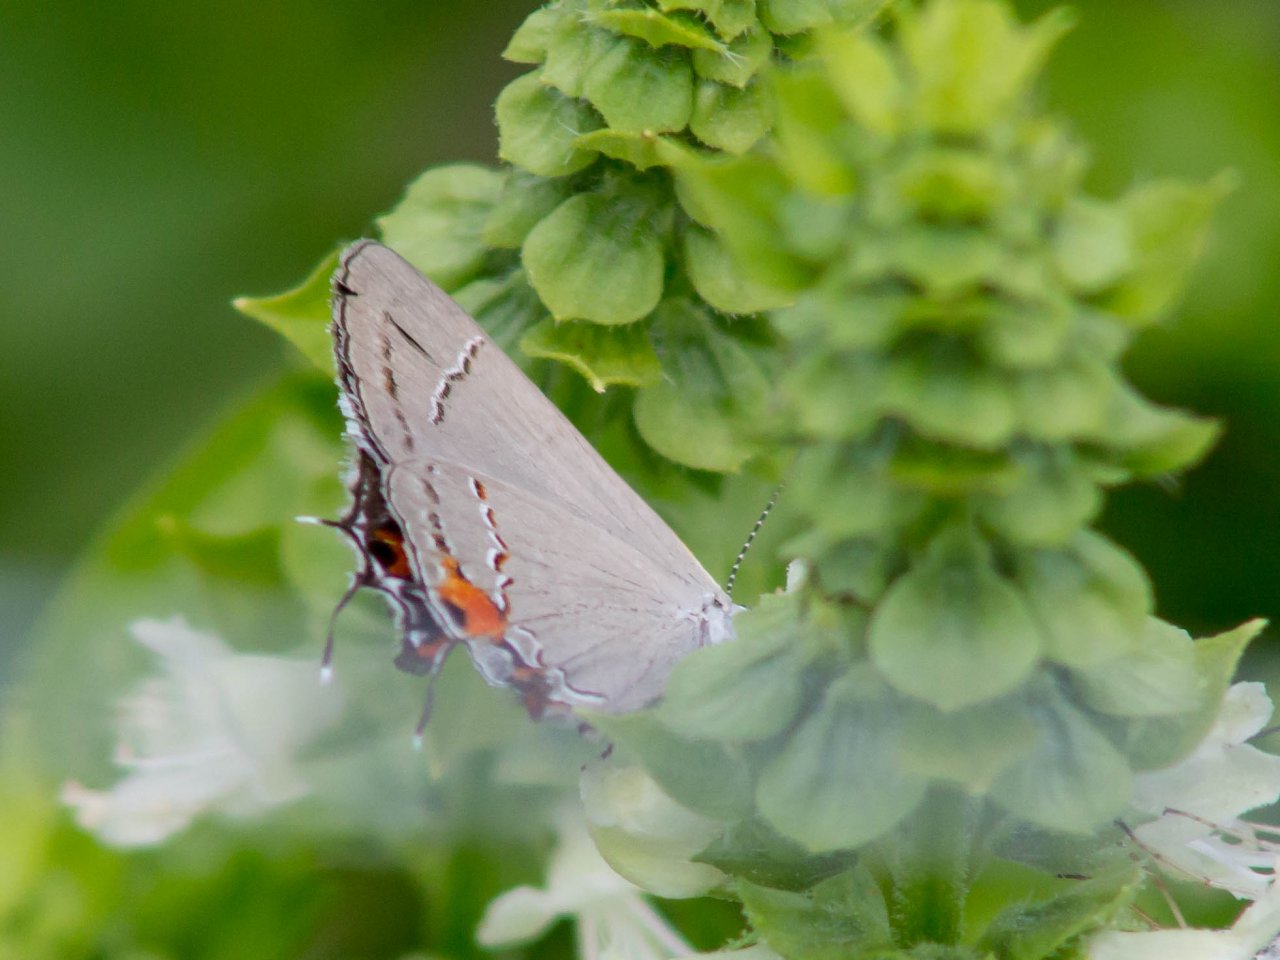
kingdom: Animalia
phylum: Arthropoda
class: Insecta
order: Lepidoptera
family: Lycaenidae
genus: Strymon
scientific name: Strymon melinus
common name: Gray Hairstreak
